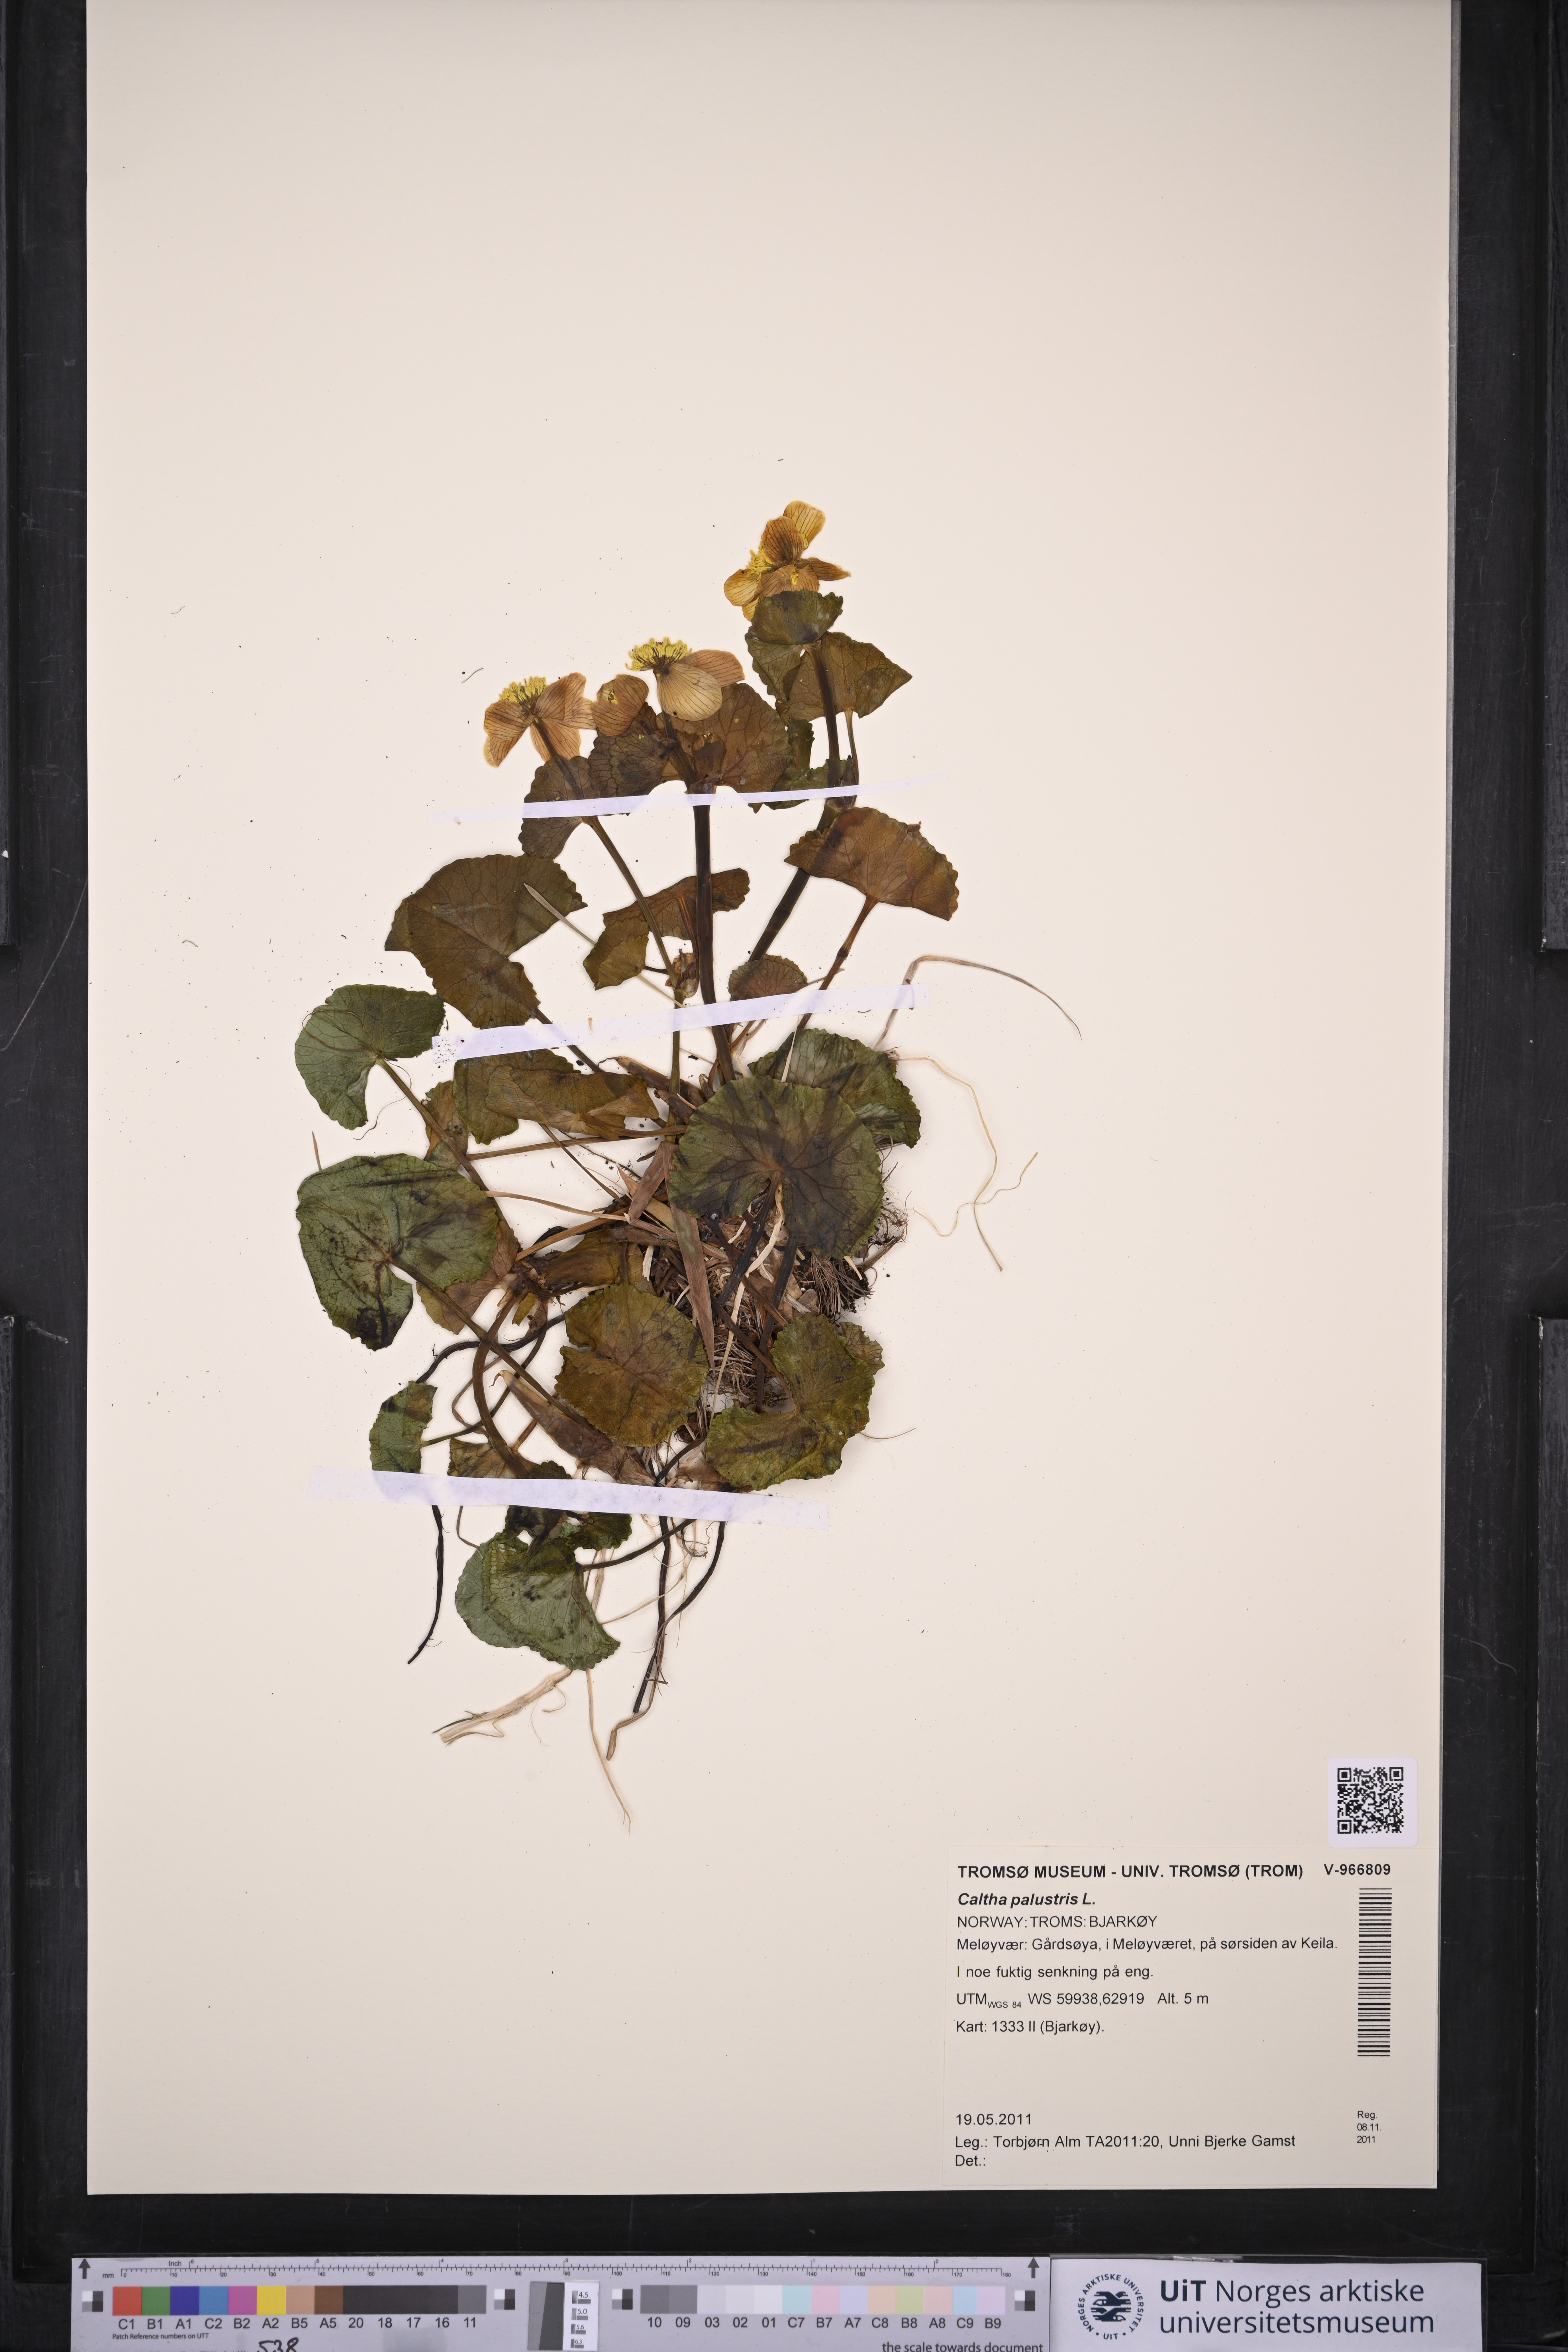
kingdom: Plantae
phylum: Tracheophyta
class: Magnoliopsida
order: Ranunculales
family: Ranunculaceae
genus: Caltha
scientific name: Caltha palustris
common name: Marsh marigold
